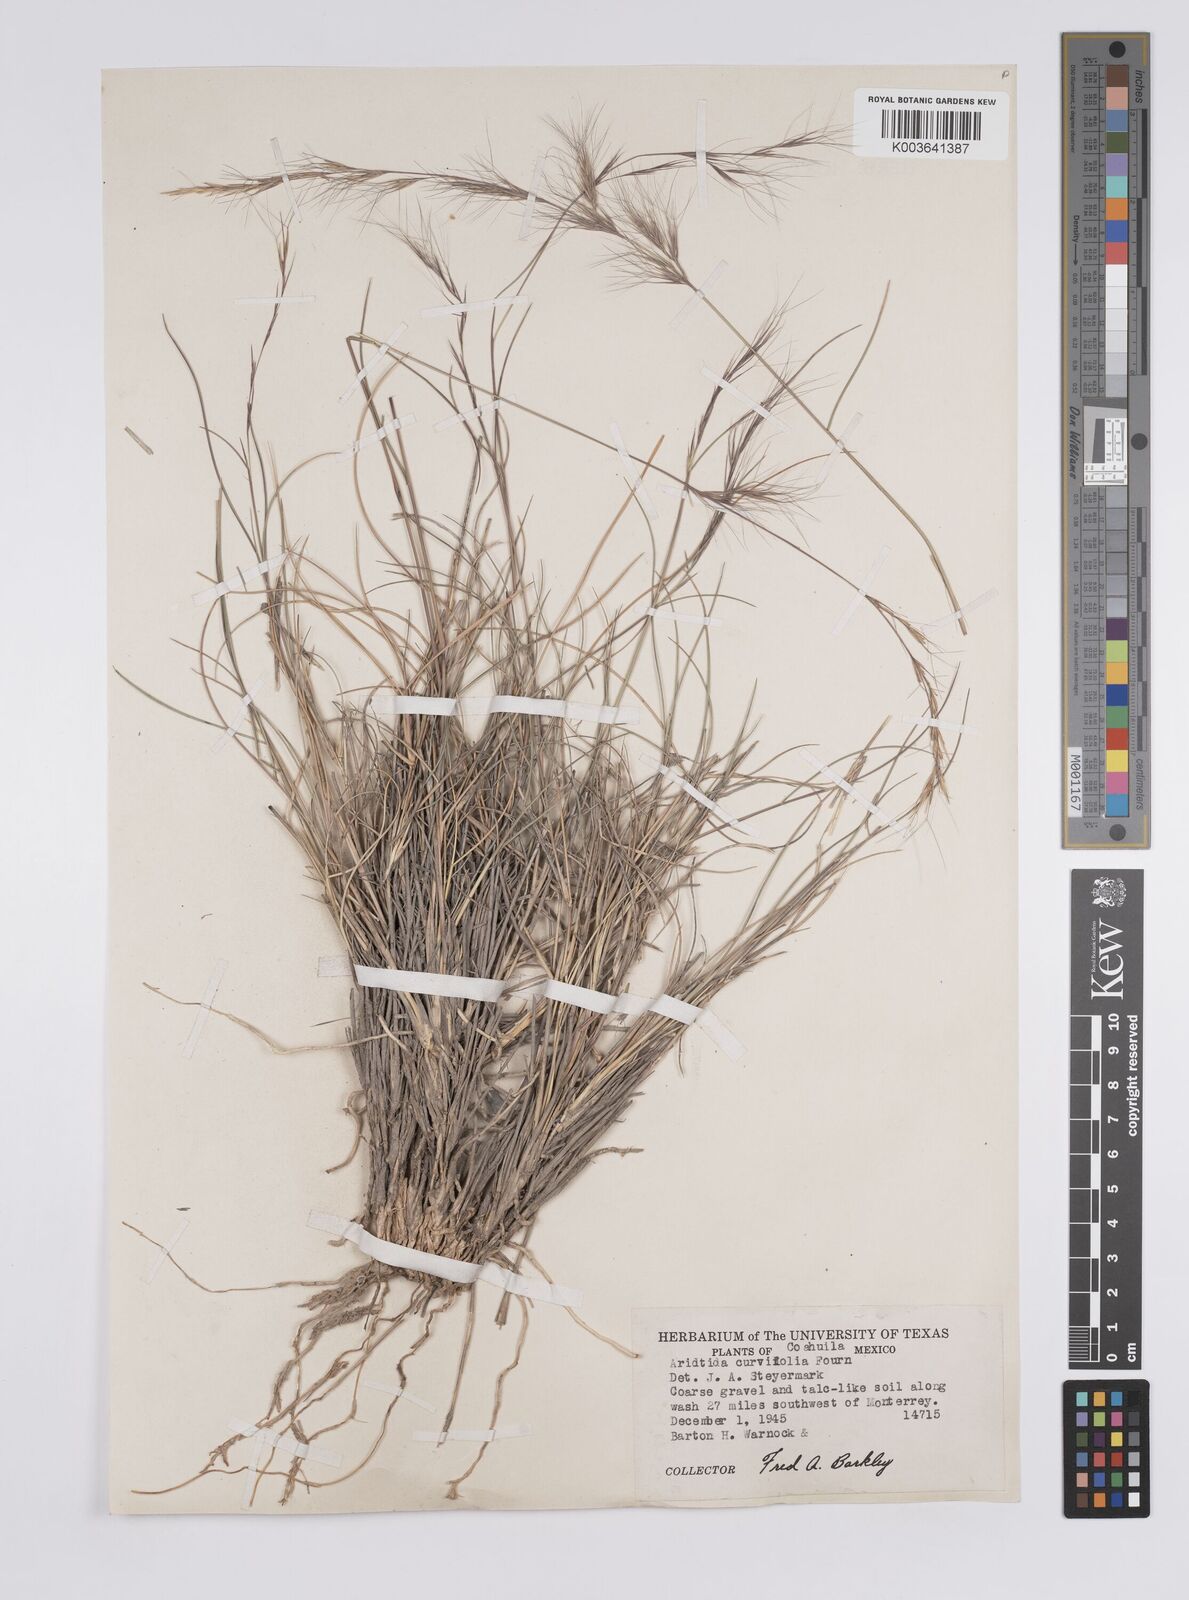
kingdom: Plantae
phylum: Tracheophyta
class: Liliopsida
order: Poales
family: Poaceae
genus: Aristida
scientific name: Aristida purpurea
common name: Purple threeawn
